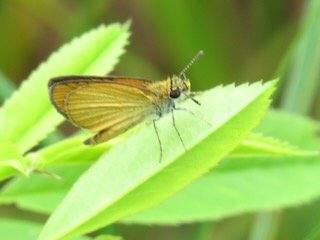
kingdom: Animalia
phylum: Arthropoda
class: Insecta
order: Lepidoptera
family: Hesperiidae
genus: Ancyloxypha
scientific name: Ancyloxypha numitor
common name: Least Skipper
